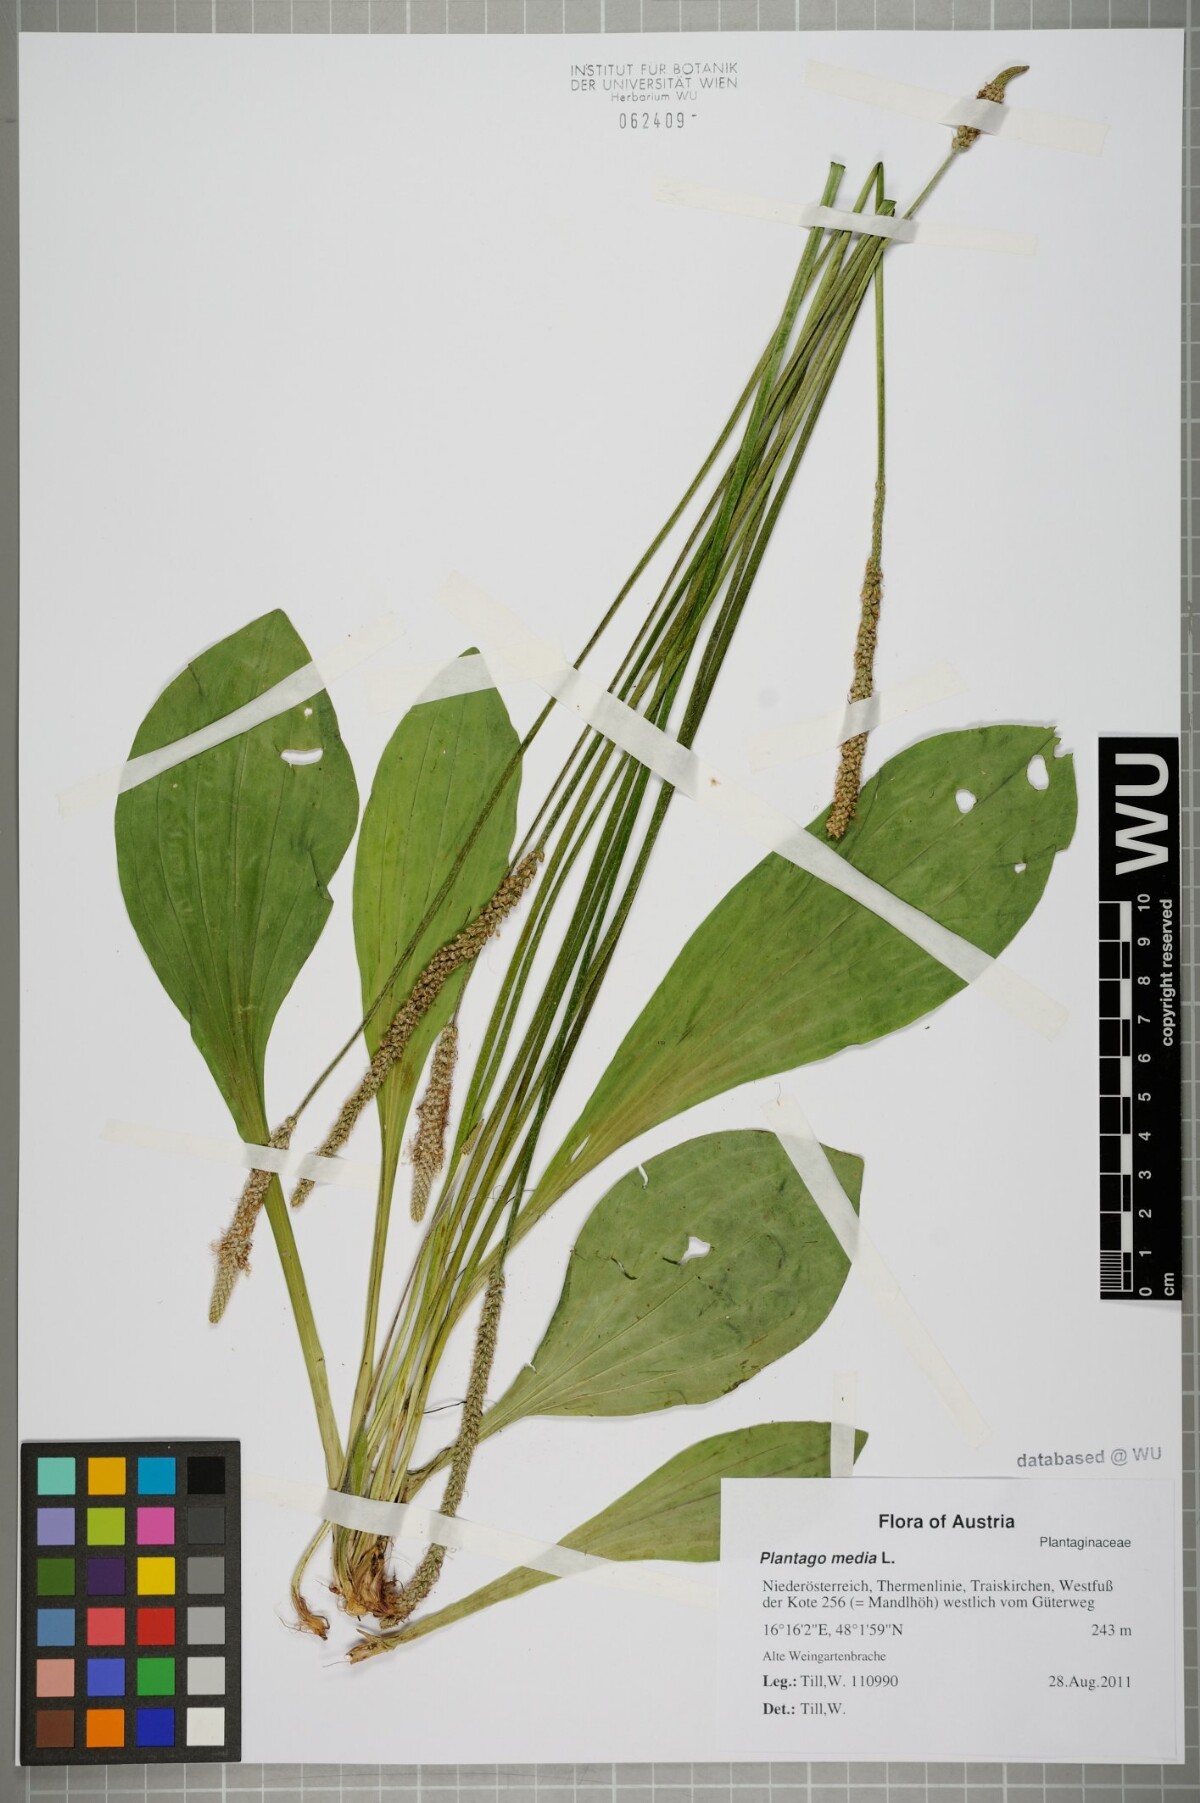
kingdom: Plantae
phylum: Tracheophyta
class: Magnoliopsida
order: Lamiales
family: Plantaginaceae
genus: Plantago
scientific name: Plantago media
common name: Hoary plantain
